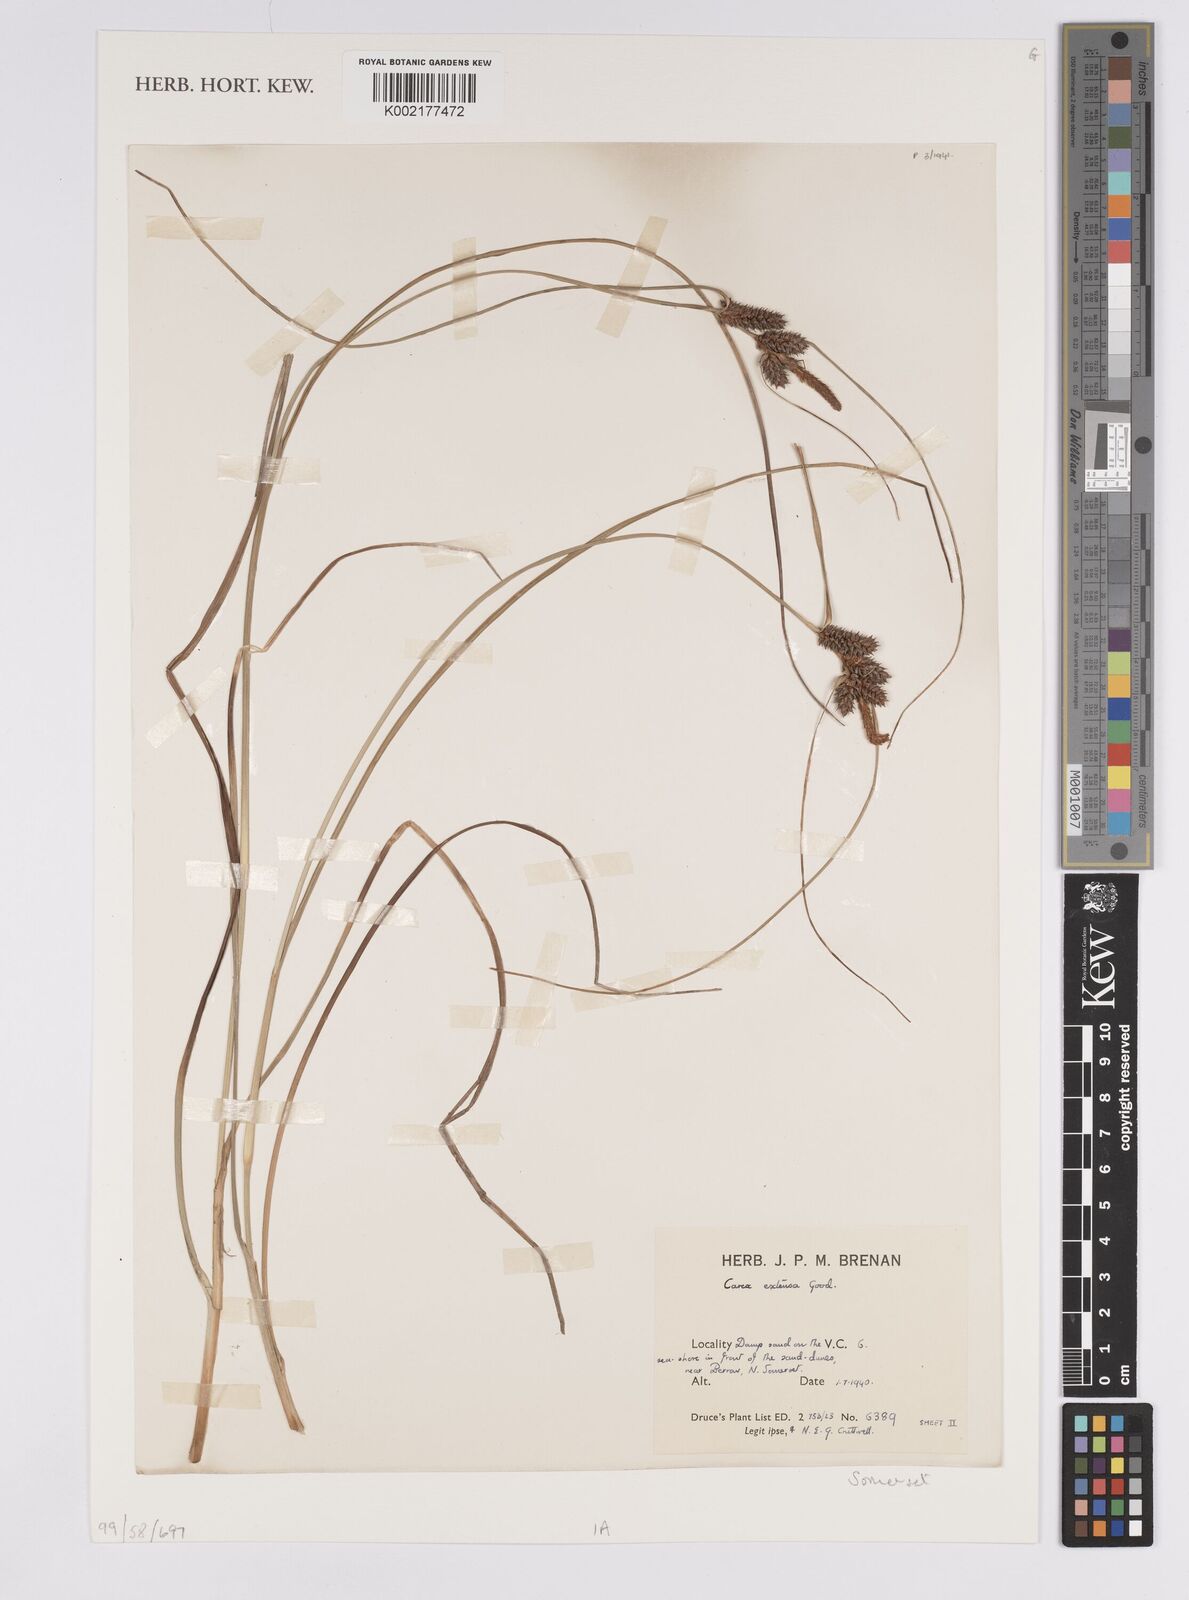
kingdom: Plantae
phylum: Tracheophyta
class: Liliopsida
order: Poales
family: Cyperaceae
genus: Carex
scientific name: Carex extensa
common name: Long-bracted sedge
